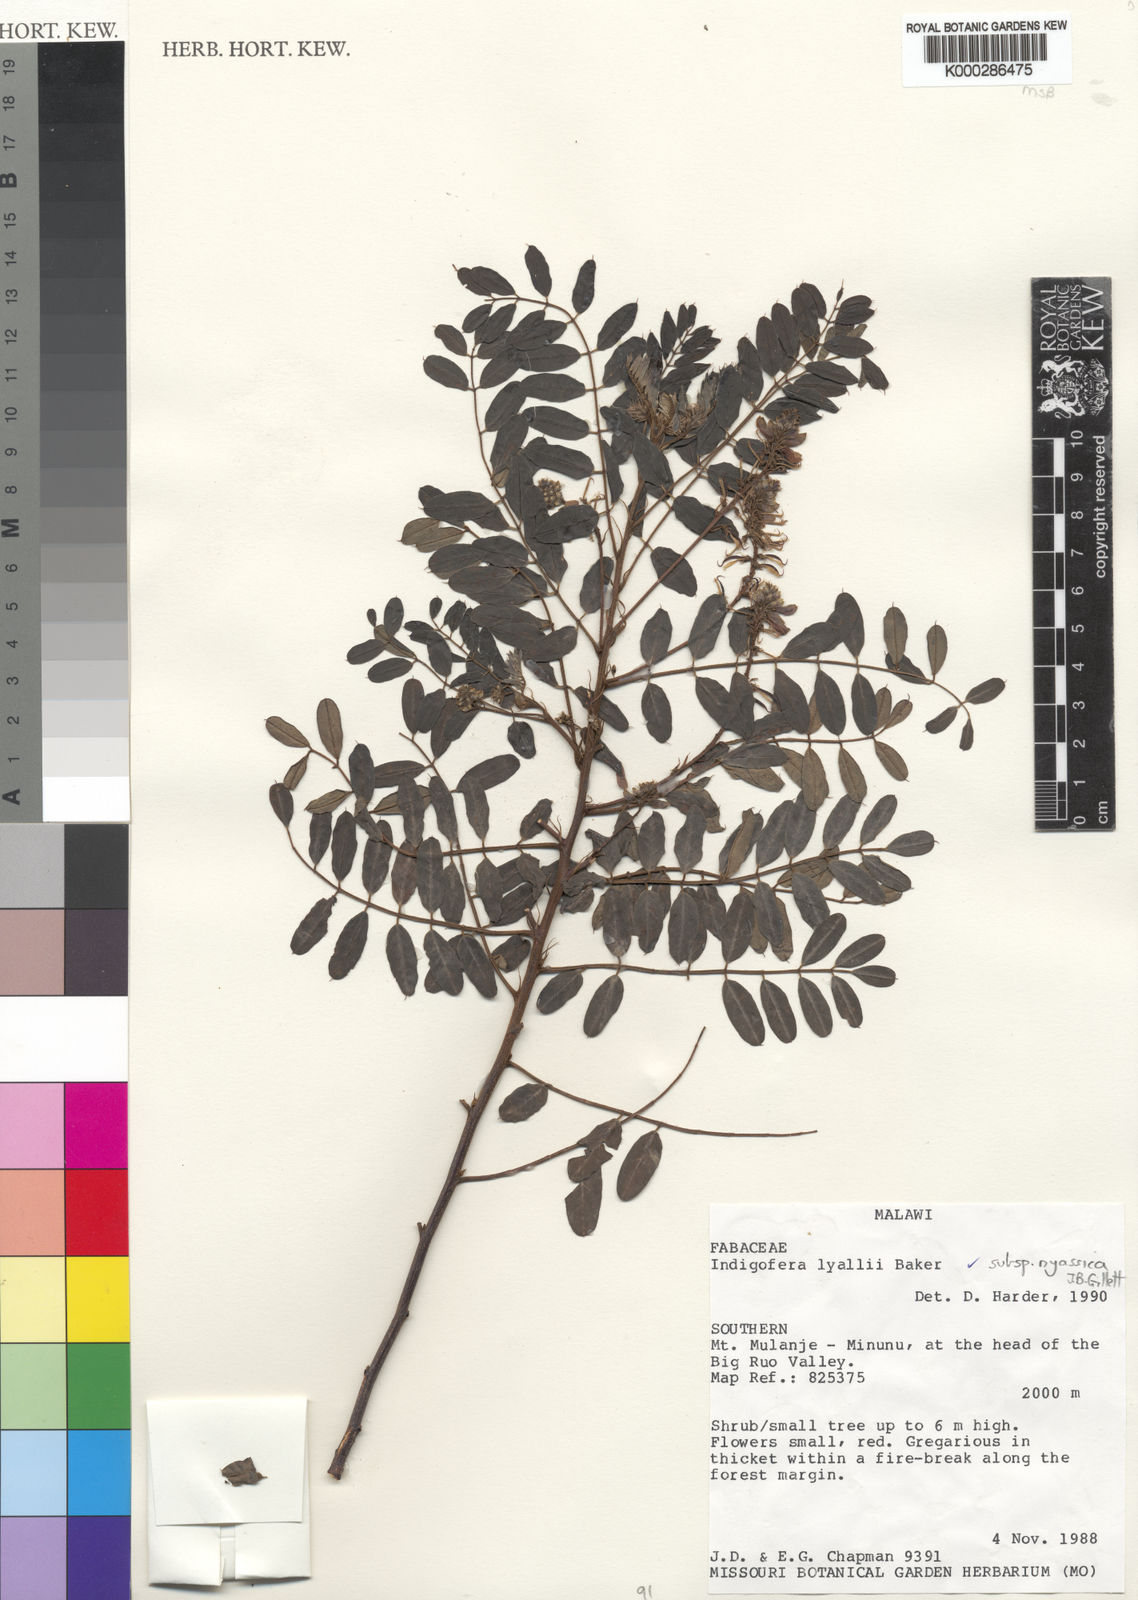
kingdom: Plantae
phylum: Tracheophyta
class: Magnoliopsida
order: Fabales
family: Fabaceae
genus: Indigofera
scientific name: Indigofera lyallii
